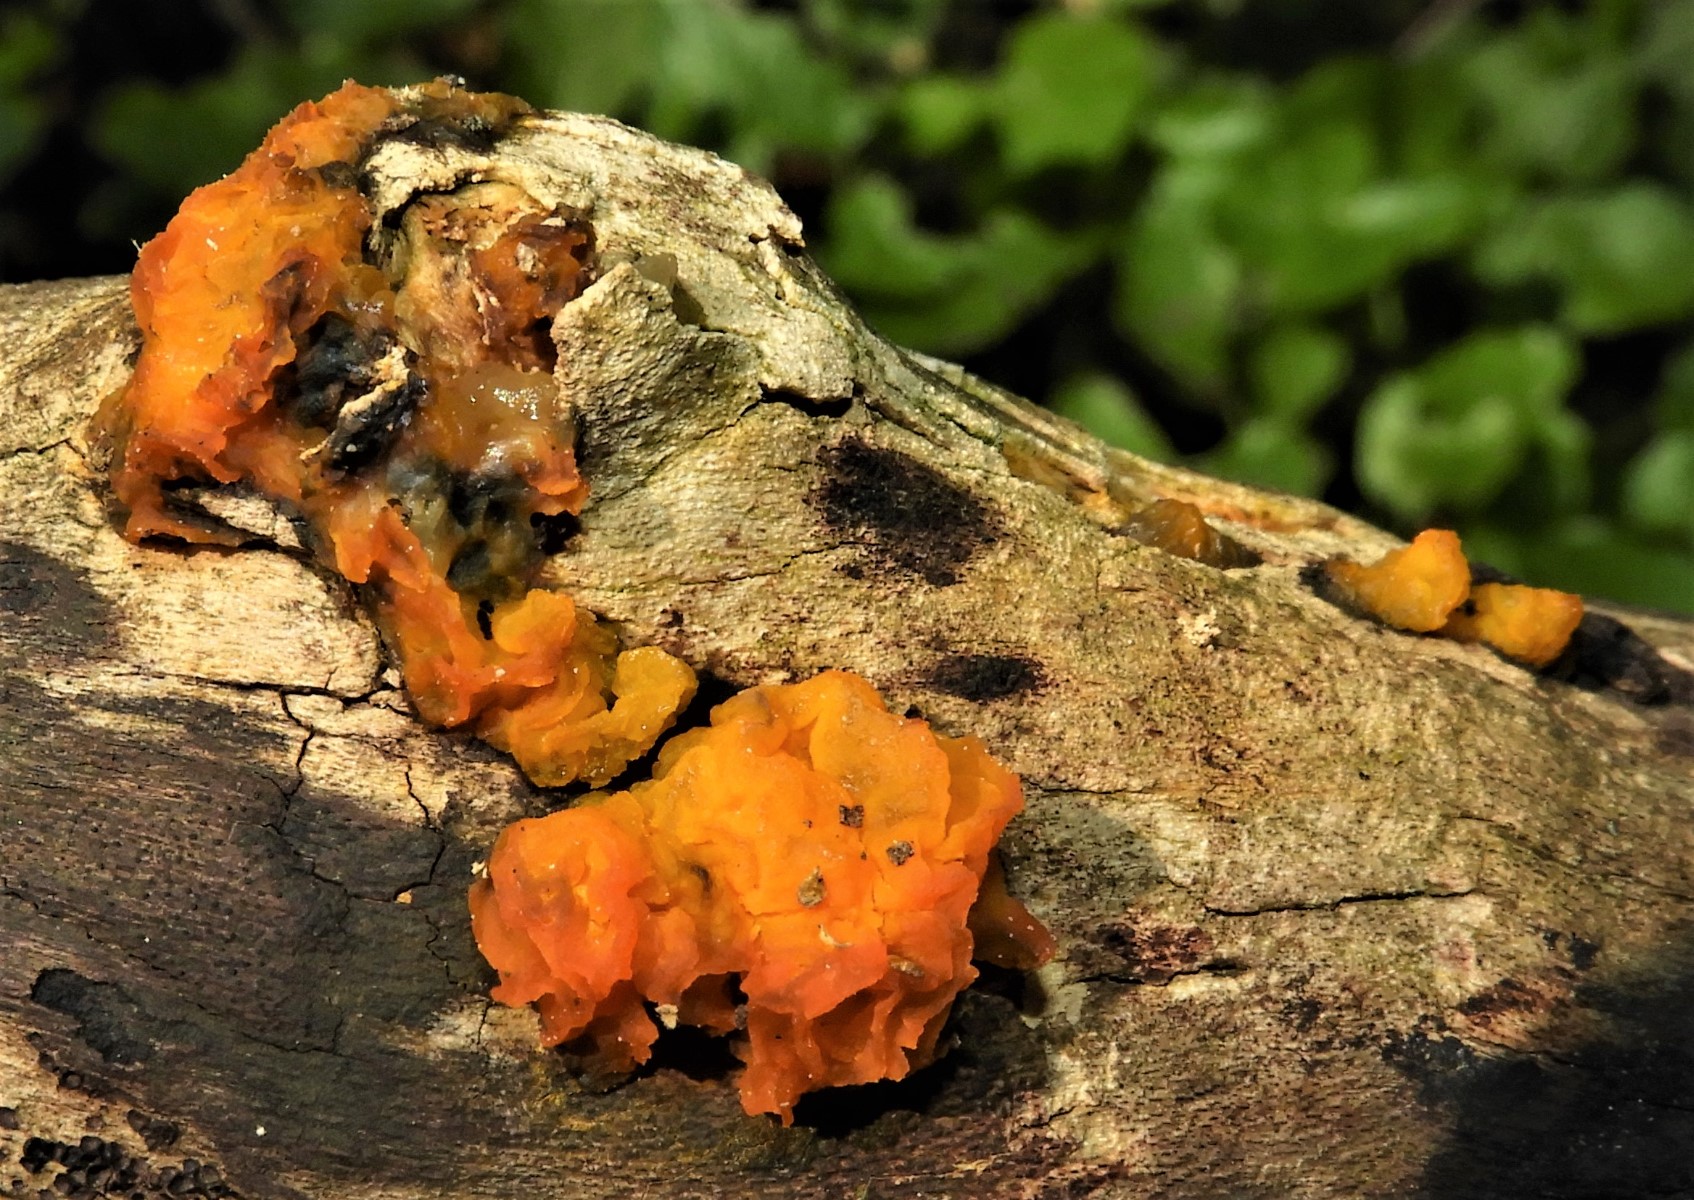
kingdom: Fungi
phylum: Basidiomycota
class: Tremellomycetes
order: Tremellales
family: Tremellaceae
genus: Tremella
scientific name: Tremella mesenterica
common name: gul bævresvamp
